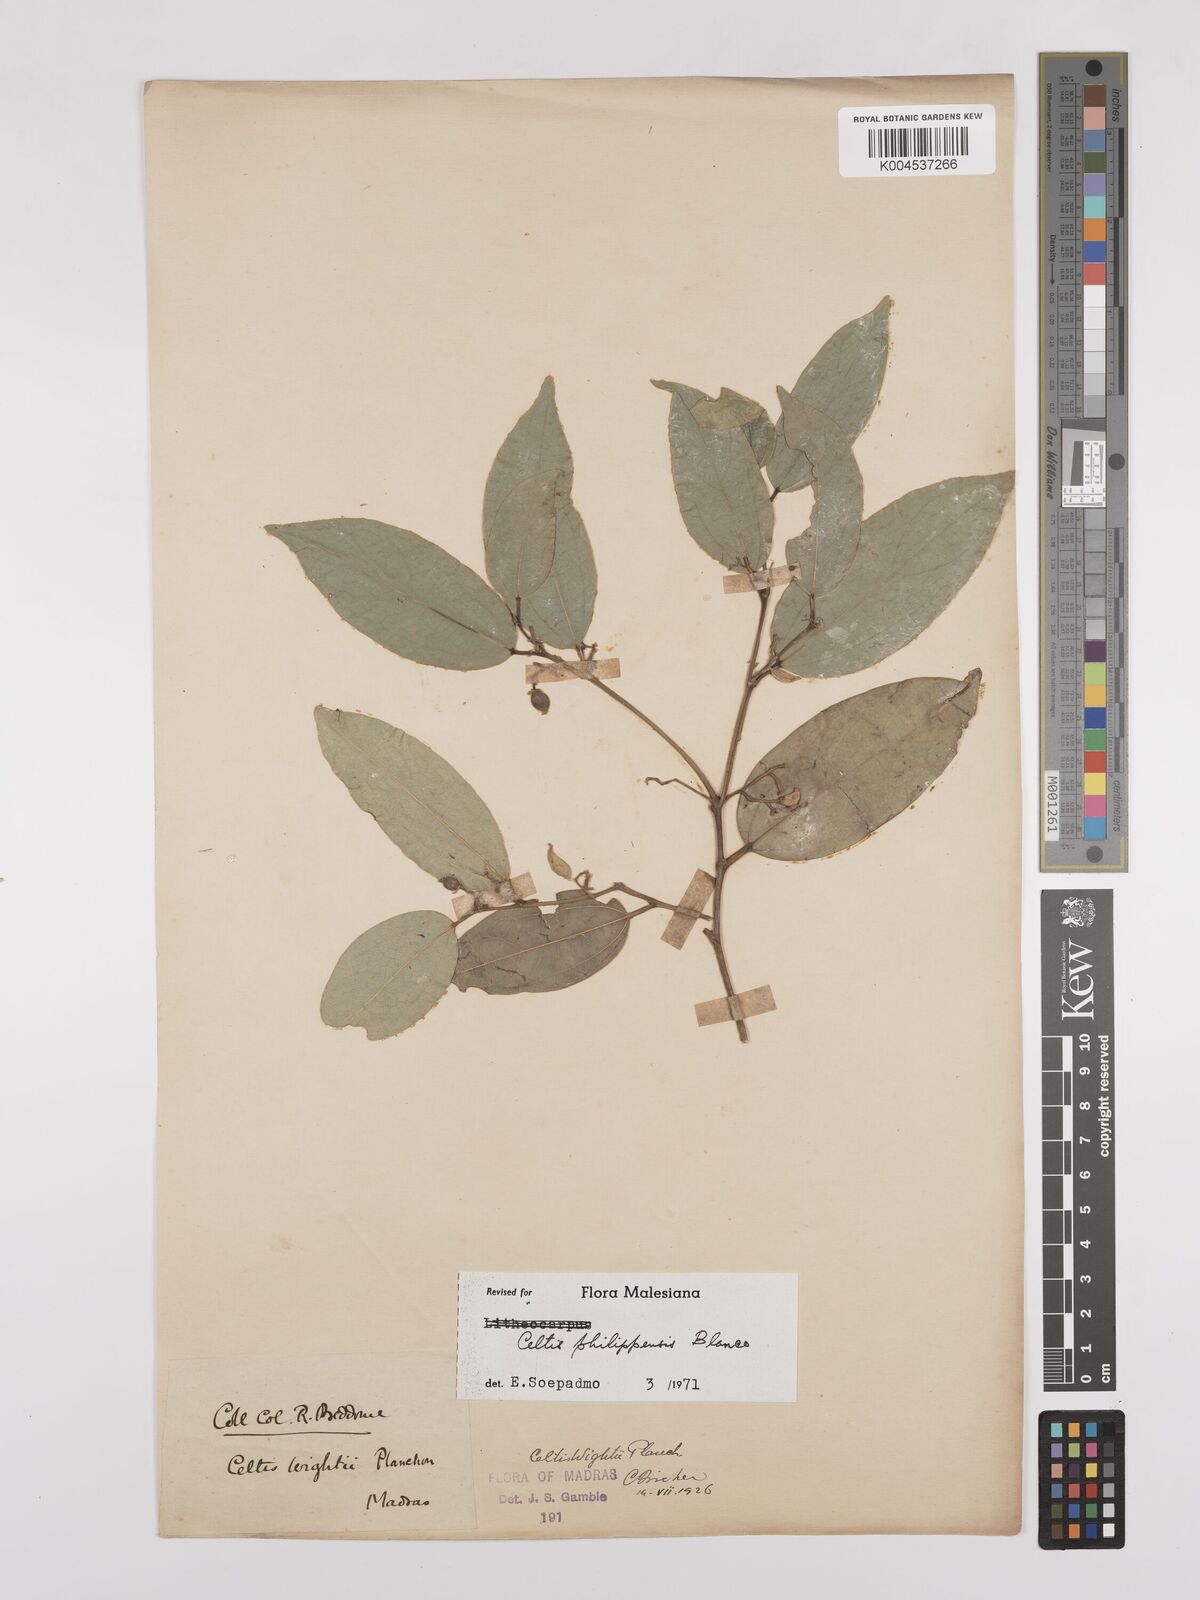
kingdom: Plantae
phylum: Tracheophyta
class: Magnoliopsida
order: Rosales
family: Cannabaceae
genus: Celtis
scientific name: Celtis philippensis
